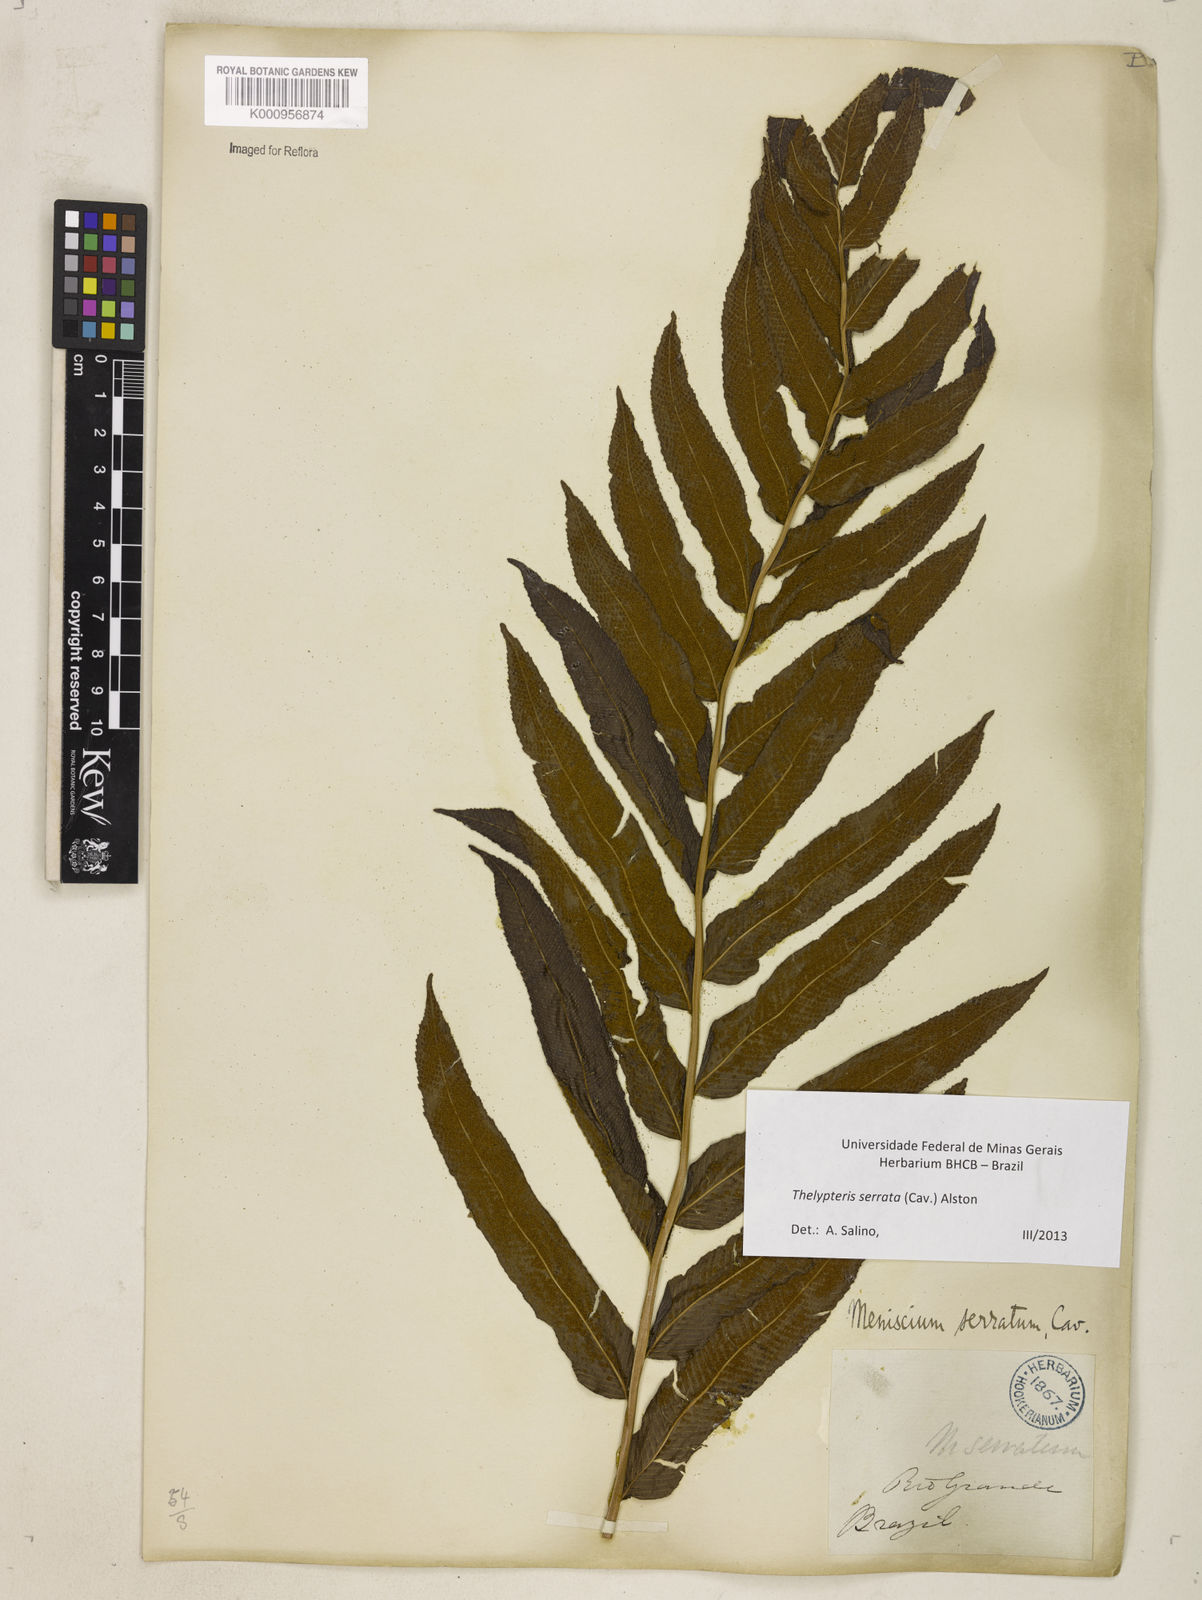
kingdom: Plantae
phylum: Tracheophyta
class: Polypodiopsida
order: Polypodiales
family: Thelypteridaceae
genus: Meniscium
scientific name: Meniscium serratum
